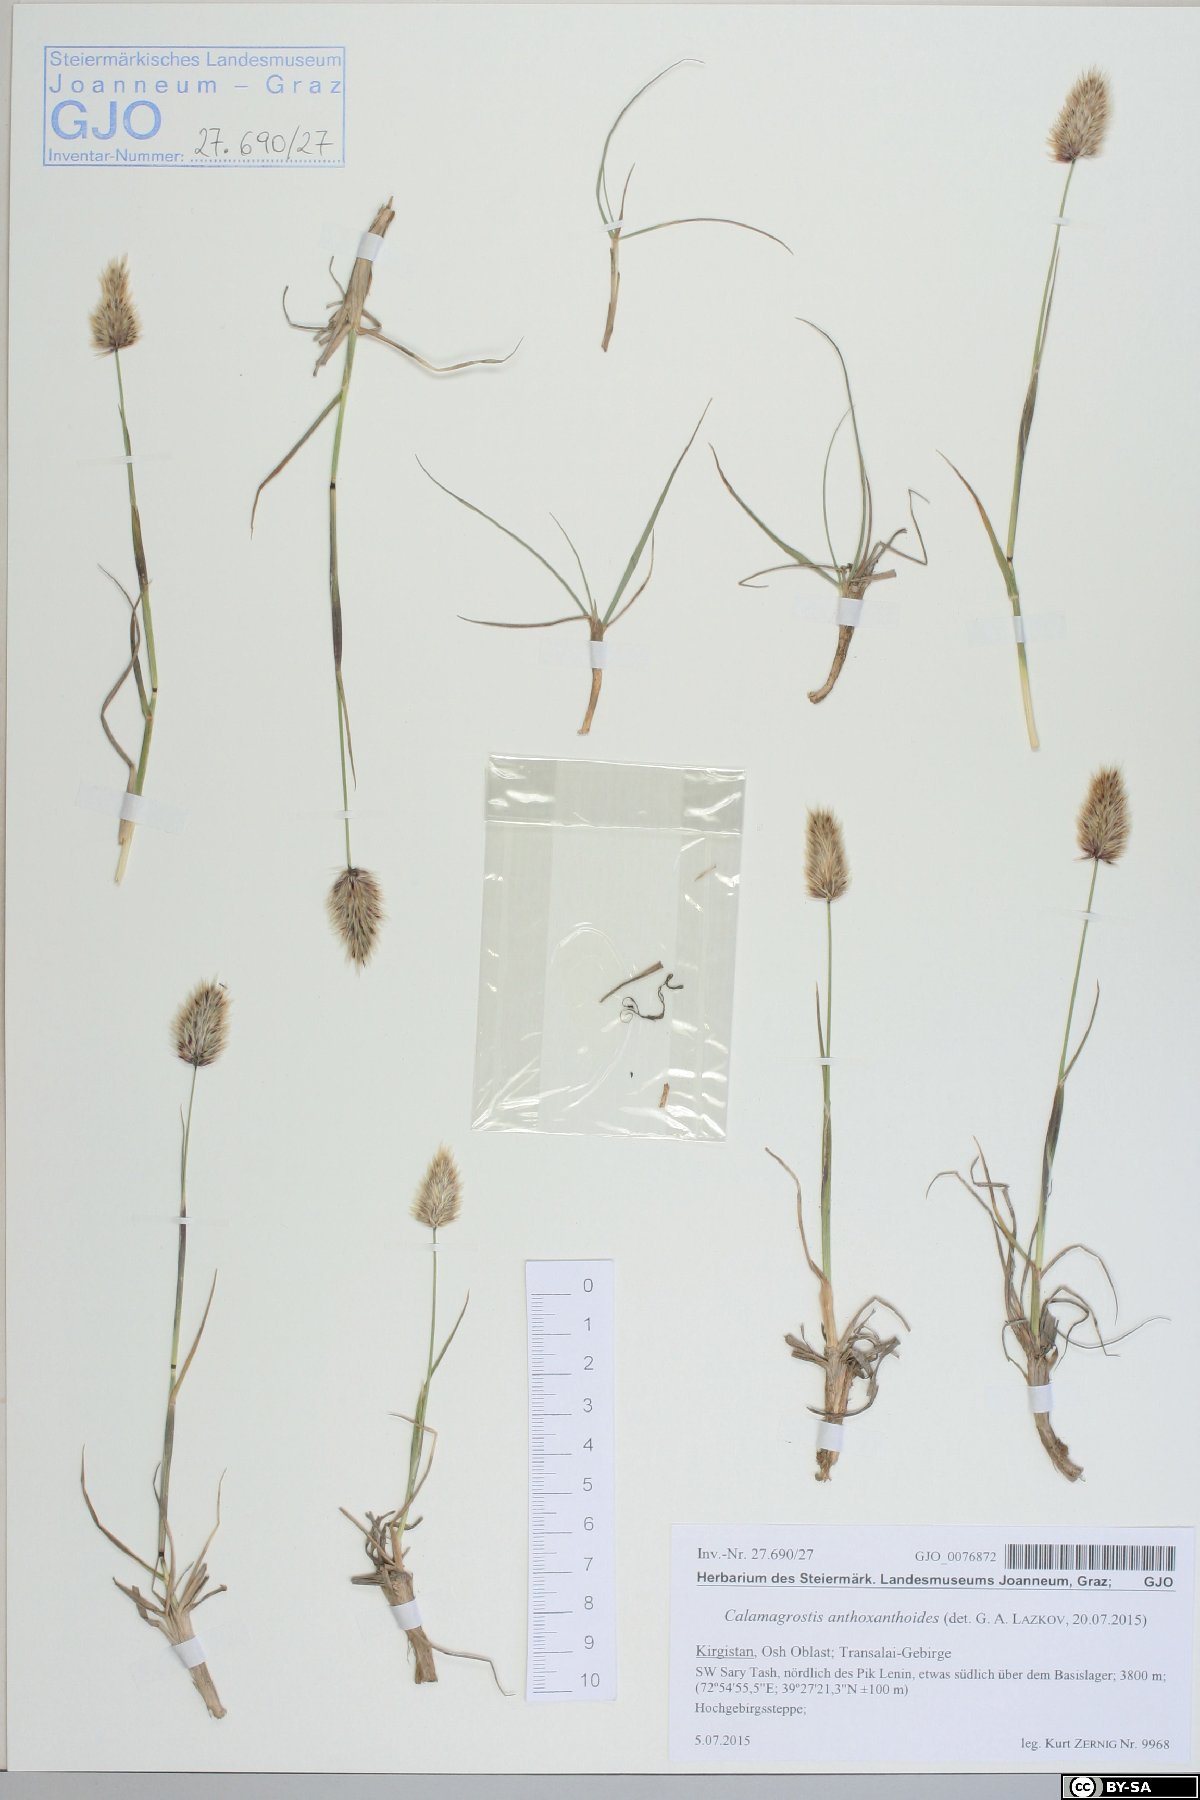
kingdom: Plantae
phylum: Tracheophyta
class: Liliopsida
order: Poales
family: Poaceae
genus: Calamagrostis
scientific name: Calamagrostis anthoxanthoides
